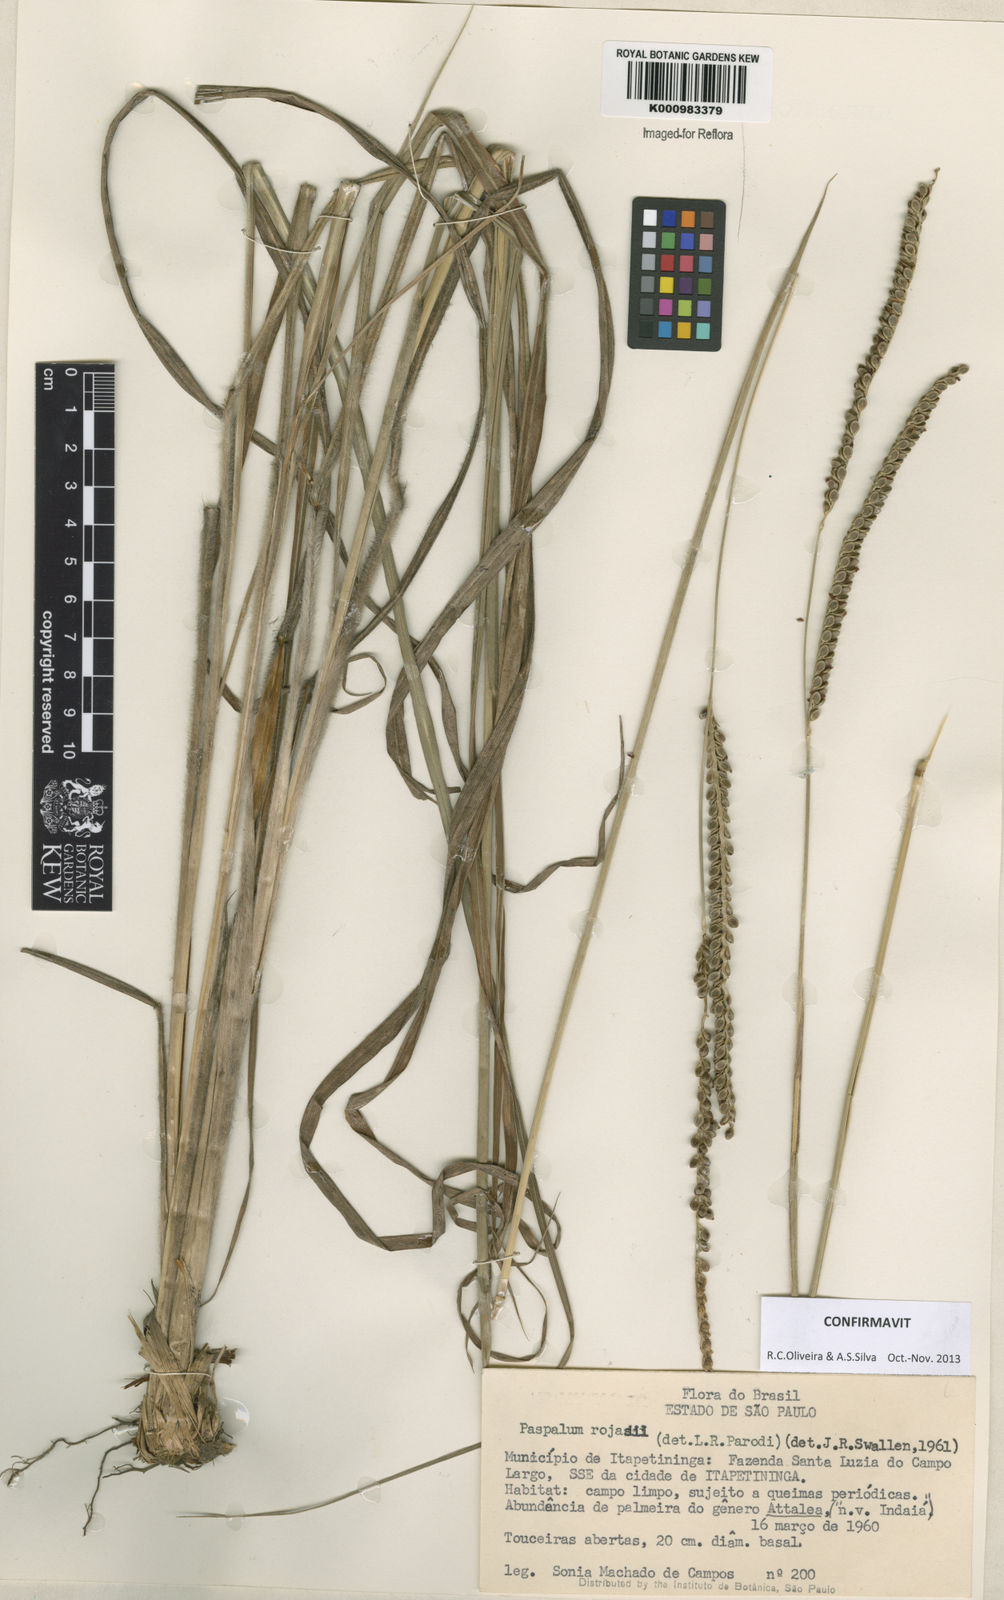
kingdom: Plantae
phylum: Tracheophyta
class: Liliopsida
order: Poales
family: Poaceae
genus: Paspalum
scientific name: Paspalum guenoarum
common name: Wintergreen paspalum
